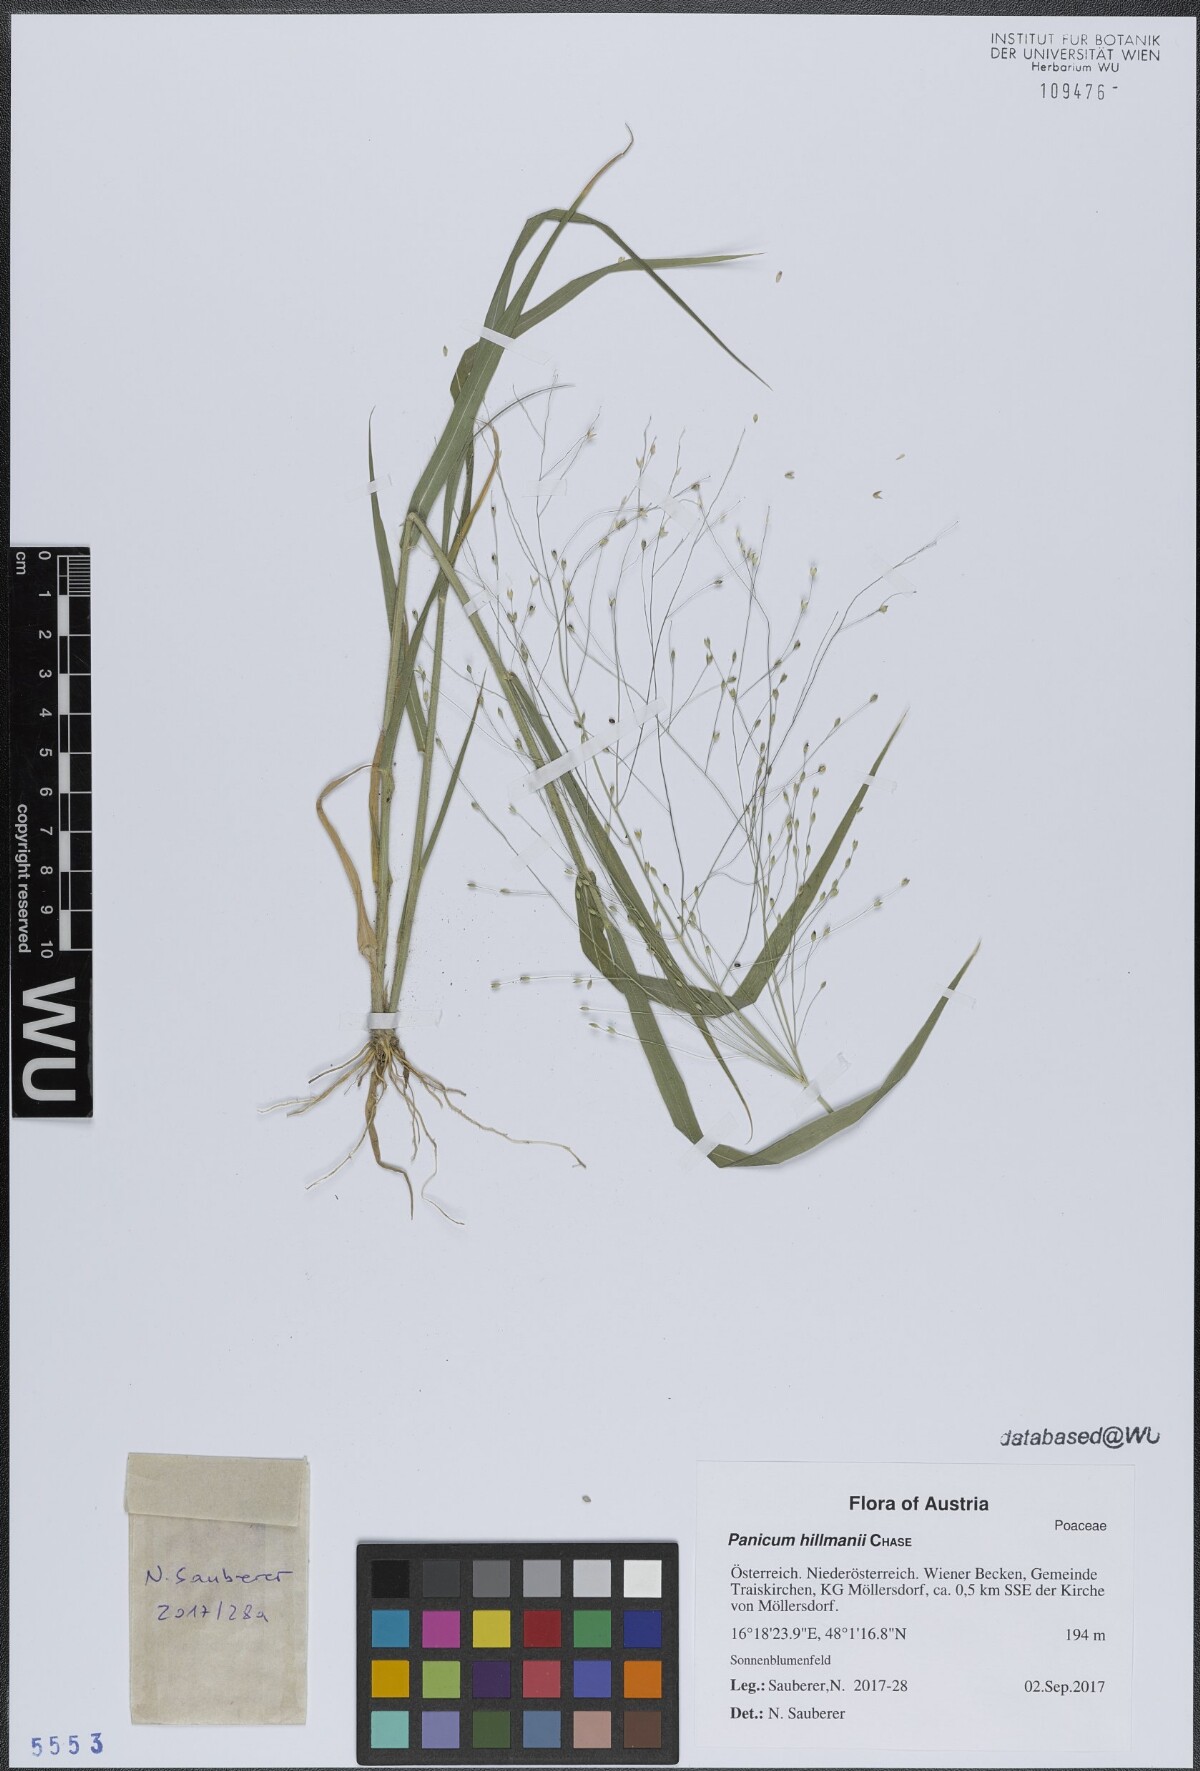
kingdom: Plantae
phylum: Tracheophyta
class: Liliopsida
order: Poales
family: Poaceae
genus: Panicum
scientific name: Panicum hillmanii
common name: Hillman's panicum
